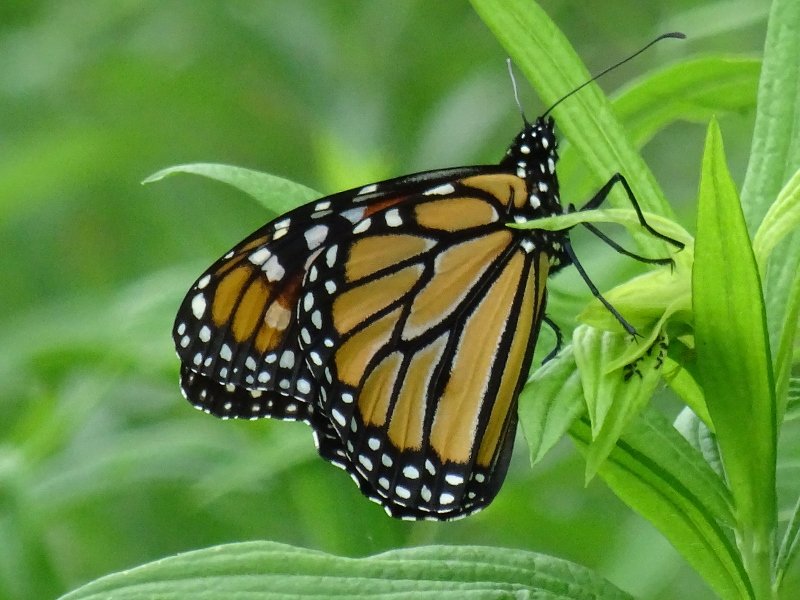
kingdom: Animalia
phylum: Arthropoda
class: Insecta
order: Lepidoptera
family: Nymphalidae
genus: Danaus
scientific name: Danaus plexippus
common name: Monarch
